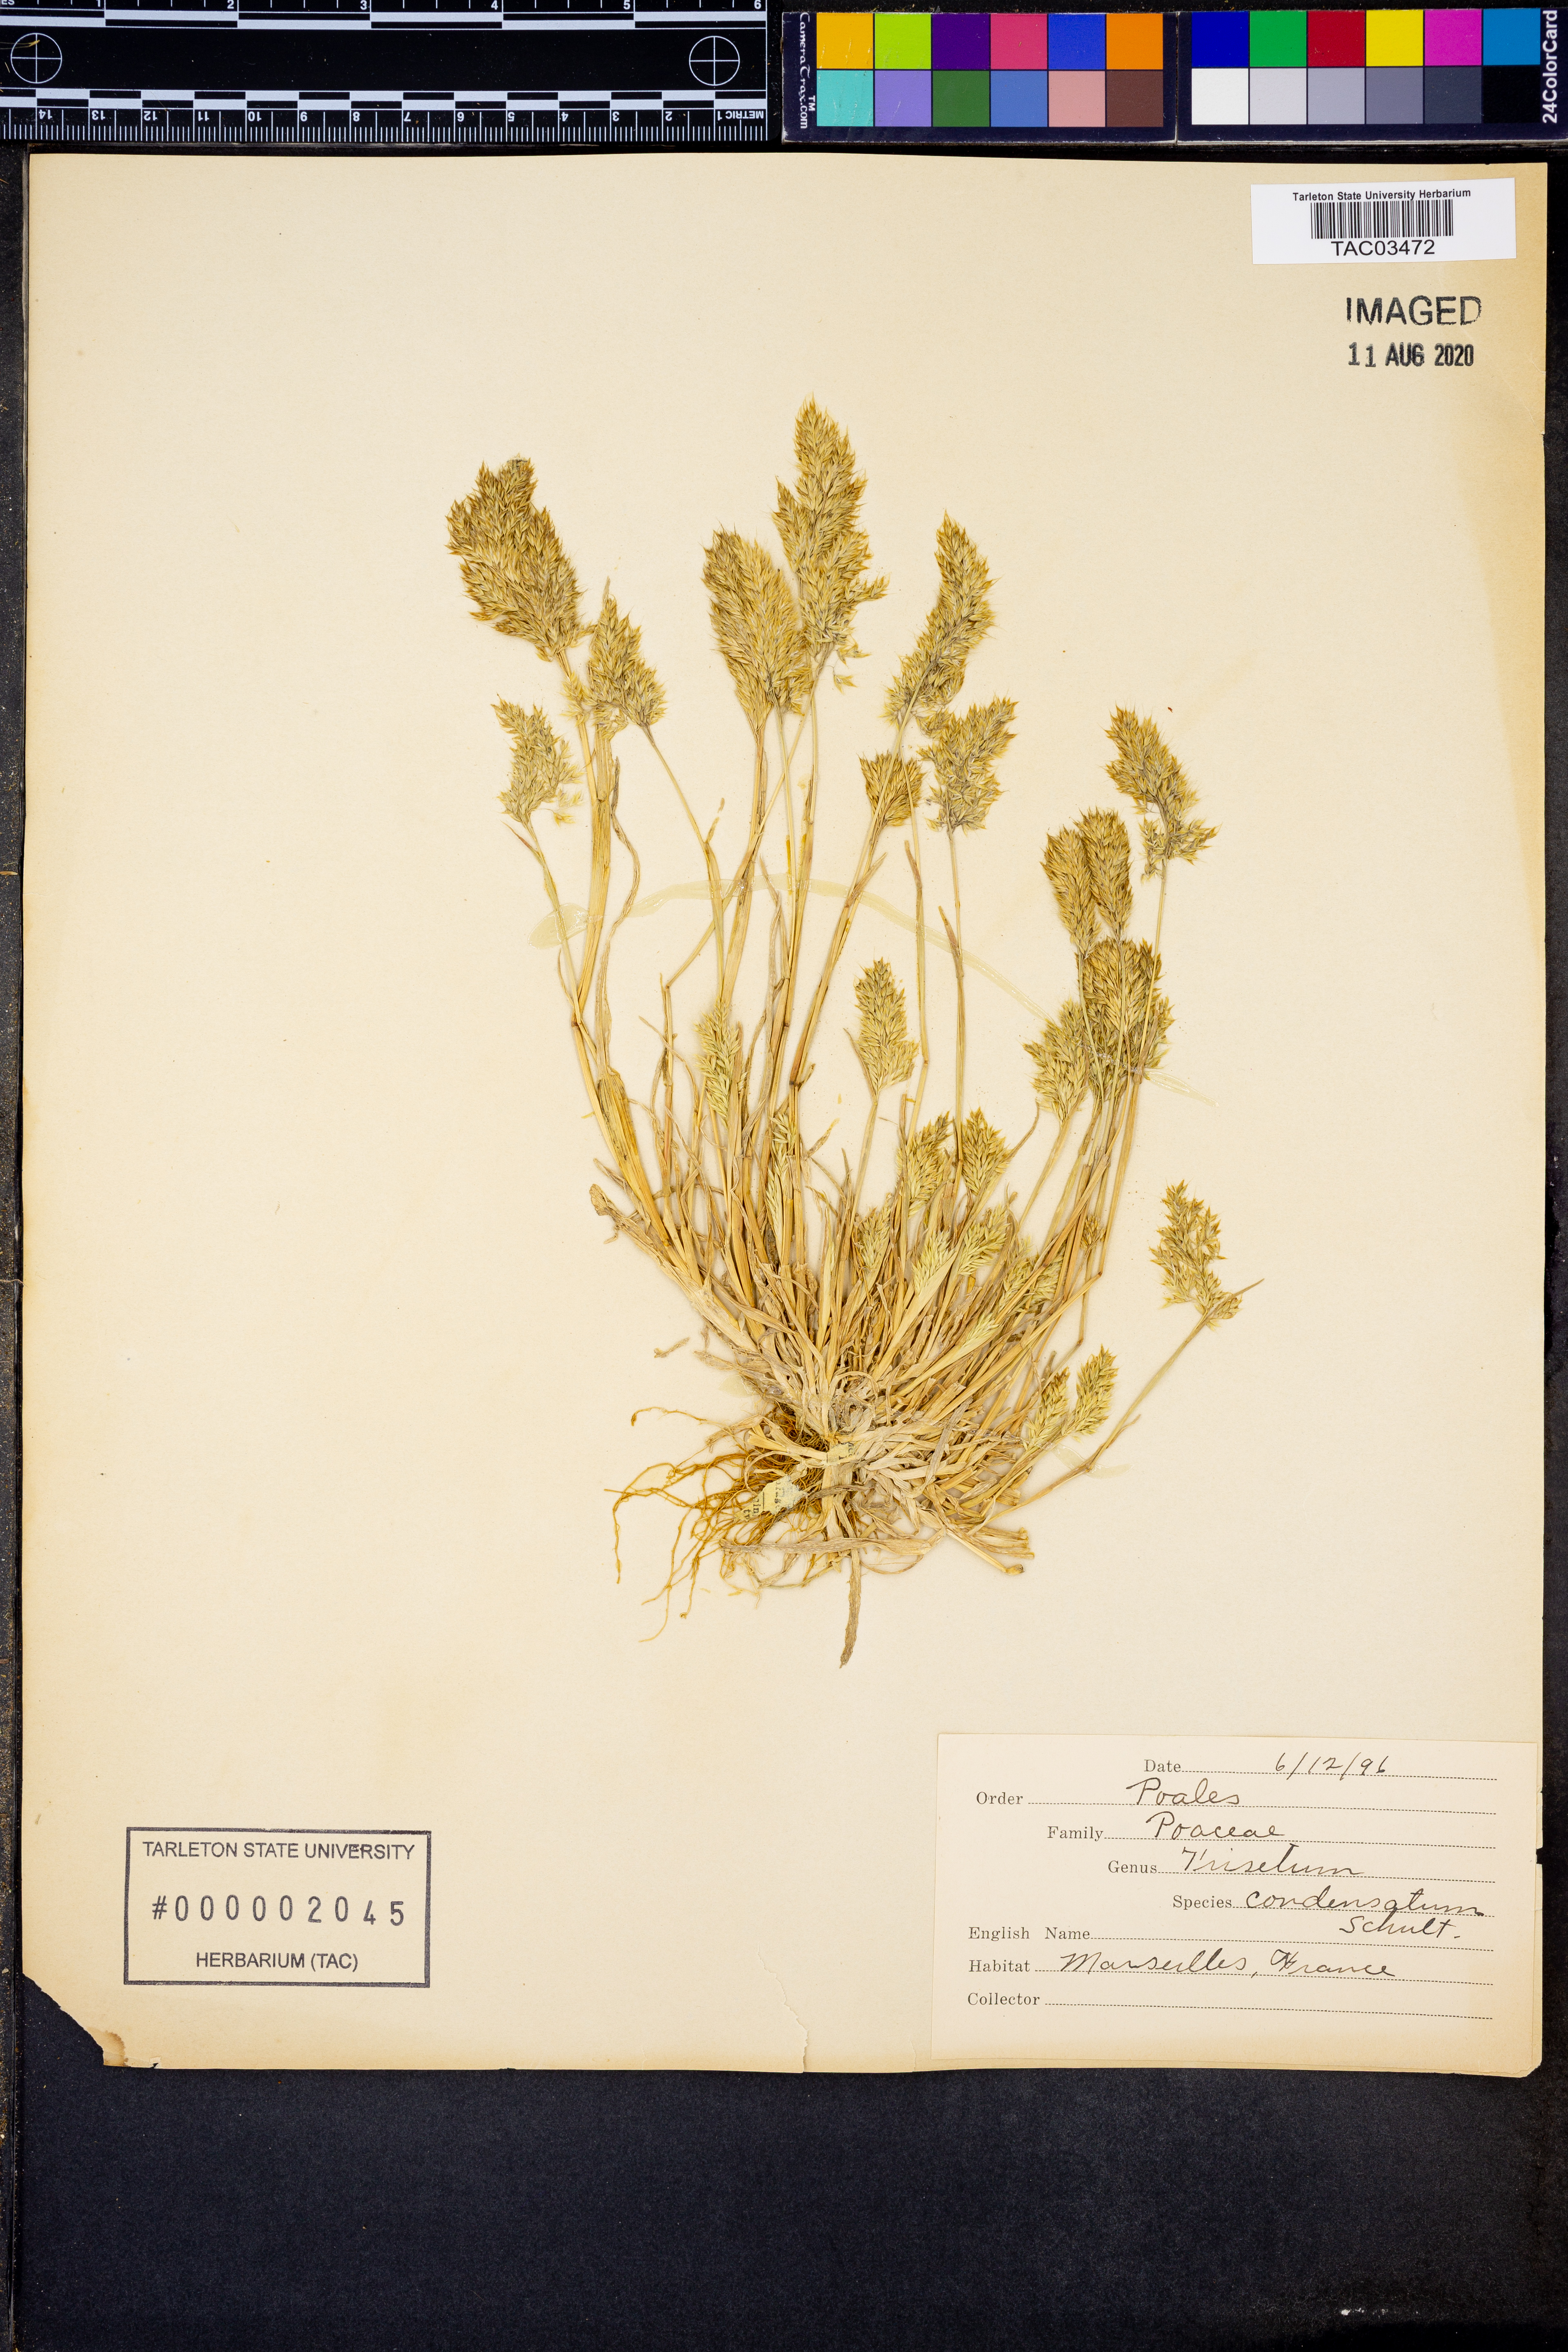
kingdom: Plantae
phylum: Tracheophyta
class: Liliopsida
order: Poales
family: Poaceae
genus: Trisetaria
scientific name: Trisetaria aurea
